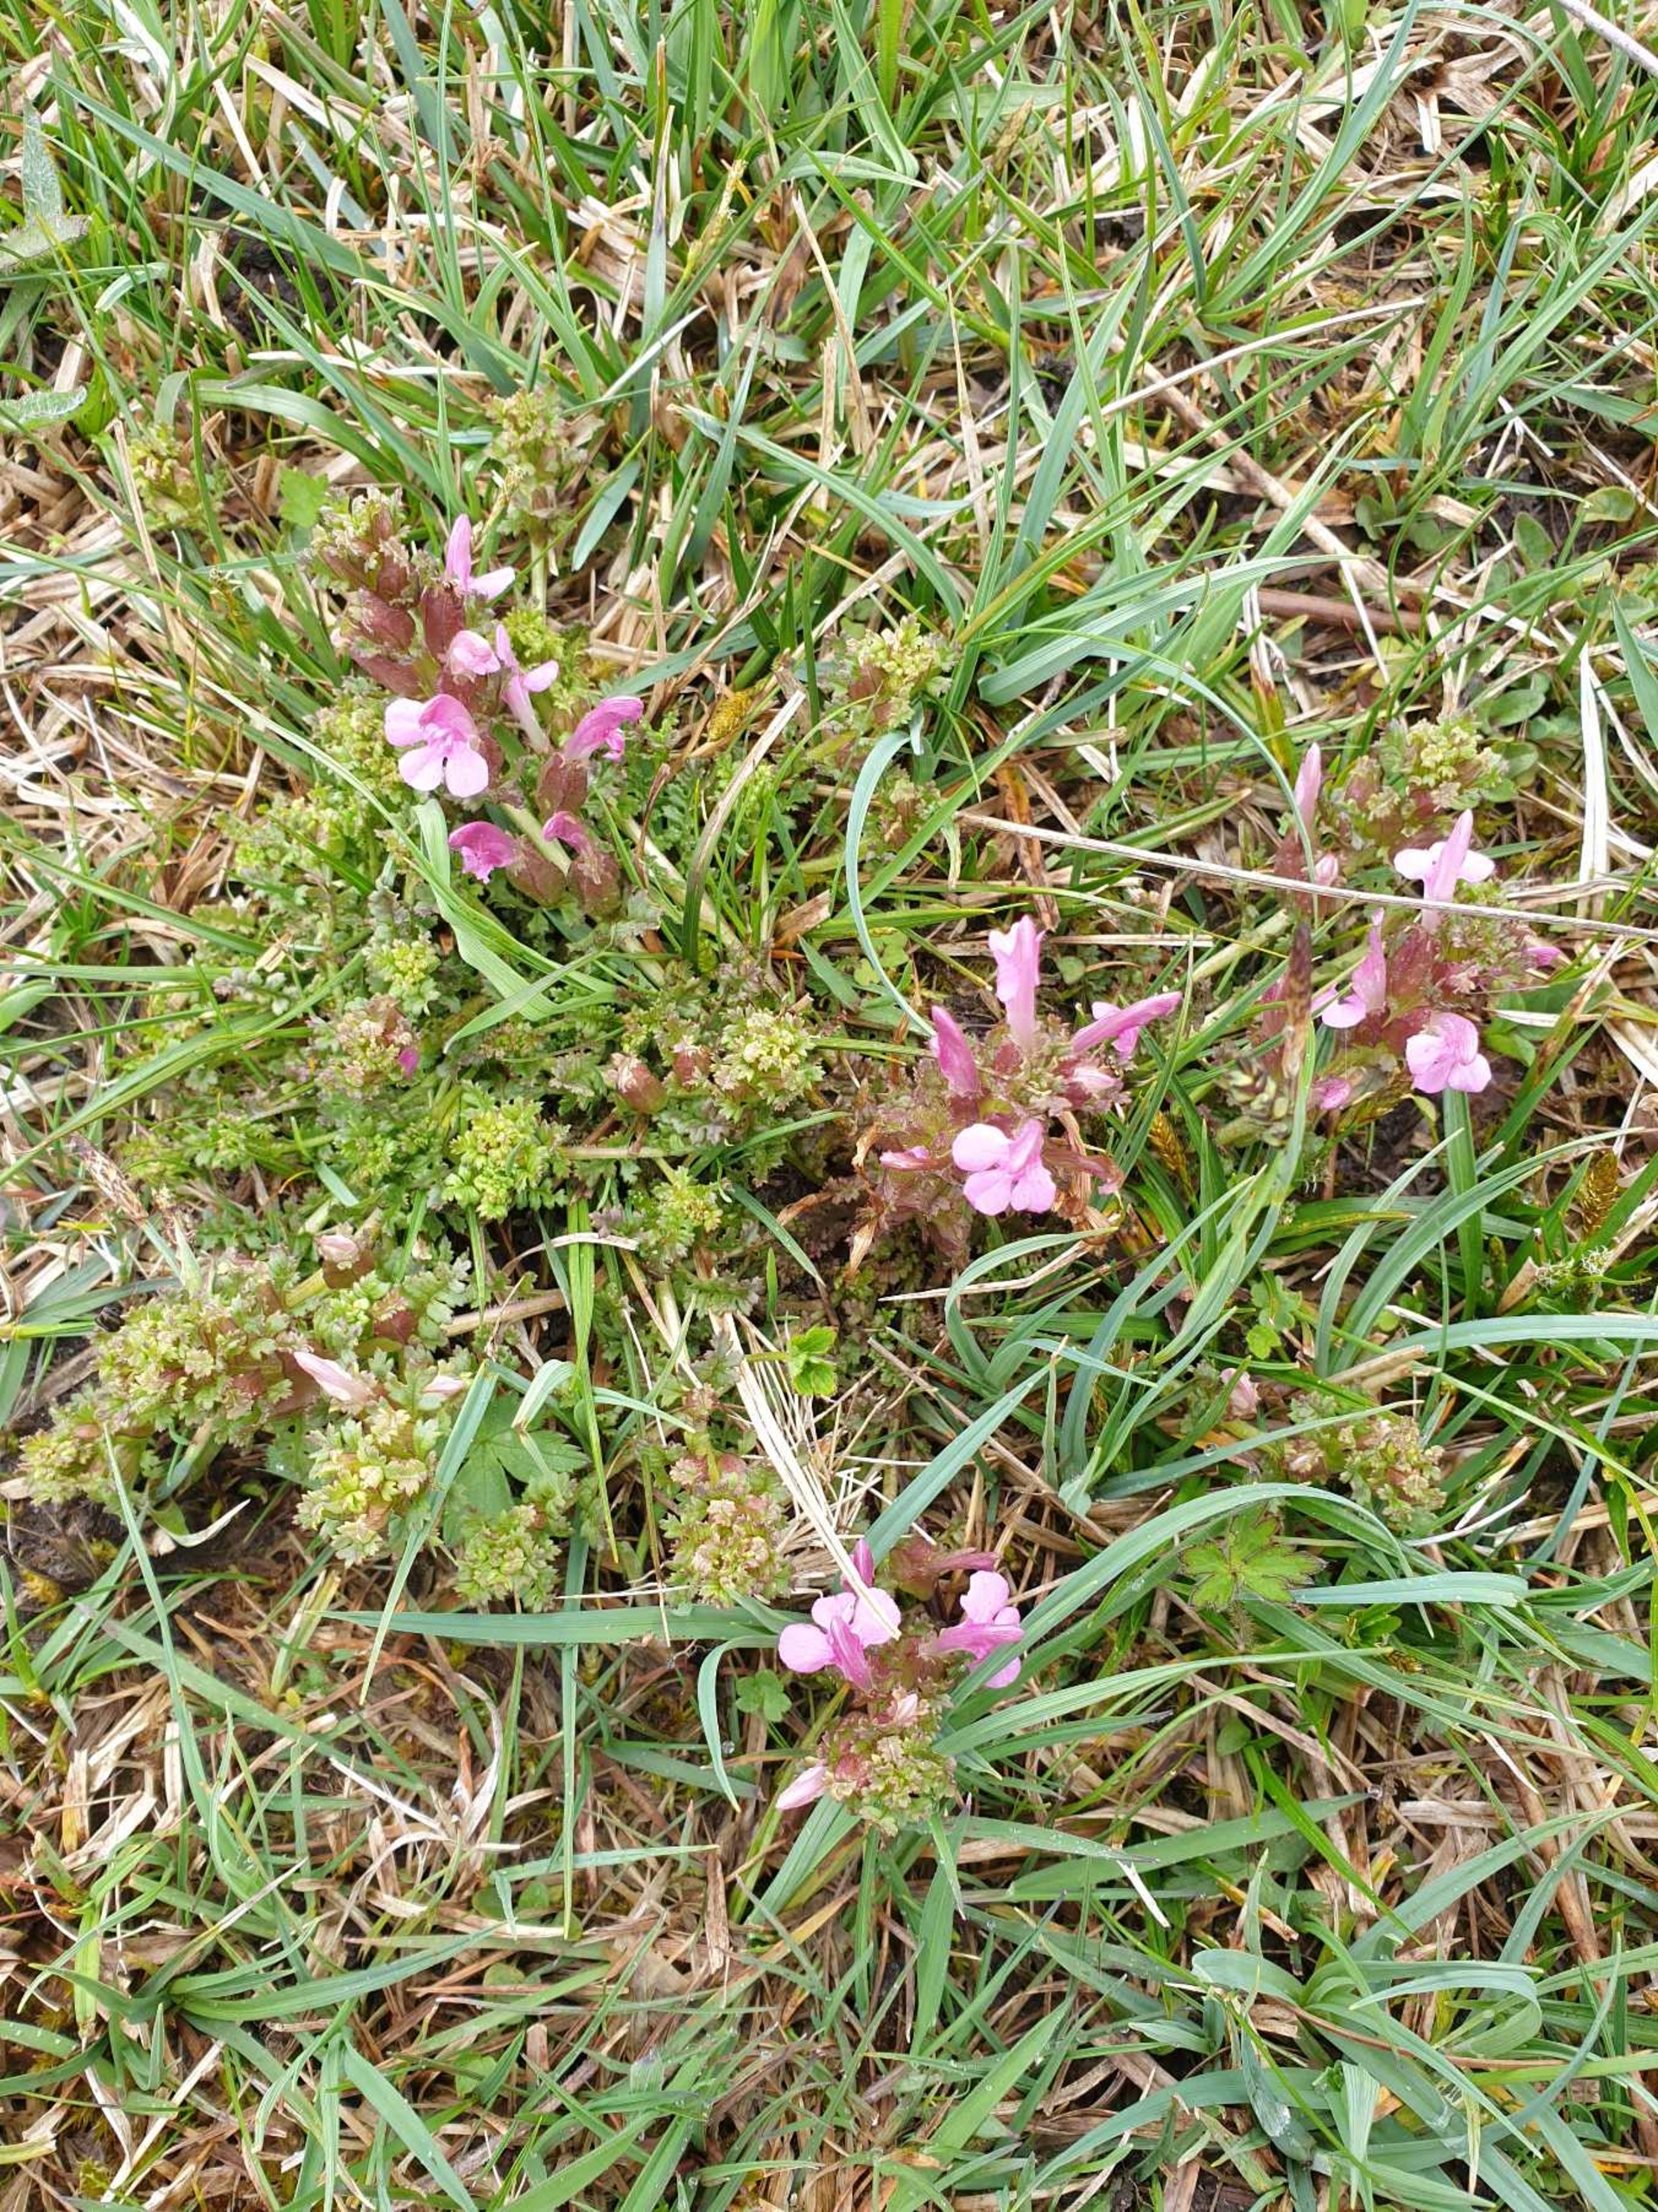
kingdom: Plantae
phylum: Tracheophyta
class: Magnoliopsida
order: Lamiales
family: Orobanchaceae
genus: Pedicularis
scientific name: Pedicularis sylvatica
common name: Mose-troldurt
